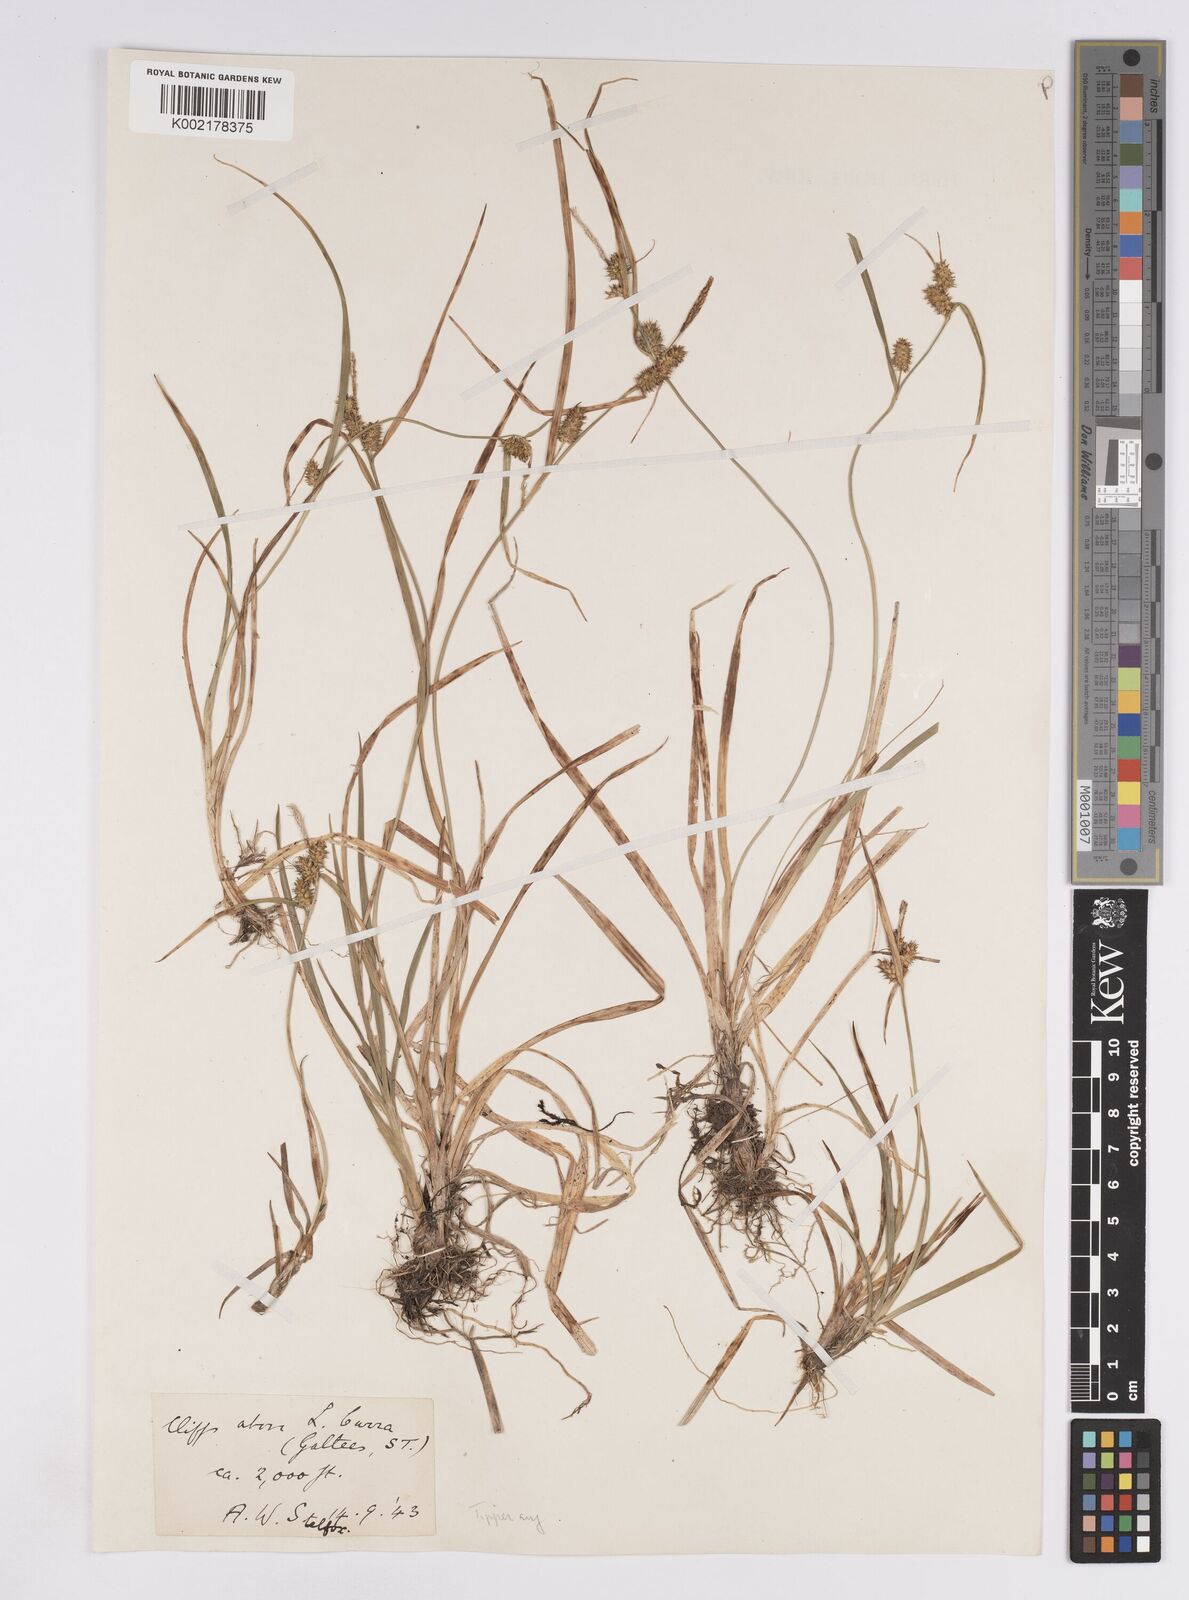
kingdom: Plantae
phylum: Tracheophyta
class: Liliopsida
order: Poales
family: Cyperaceae
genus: Carex
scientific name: Carex demissa
